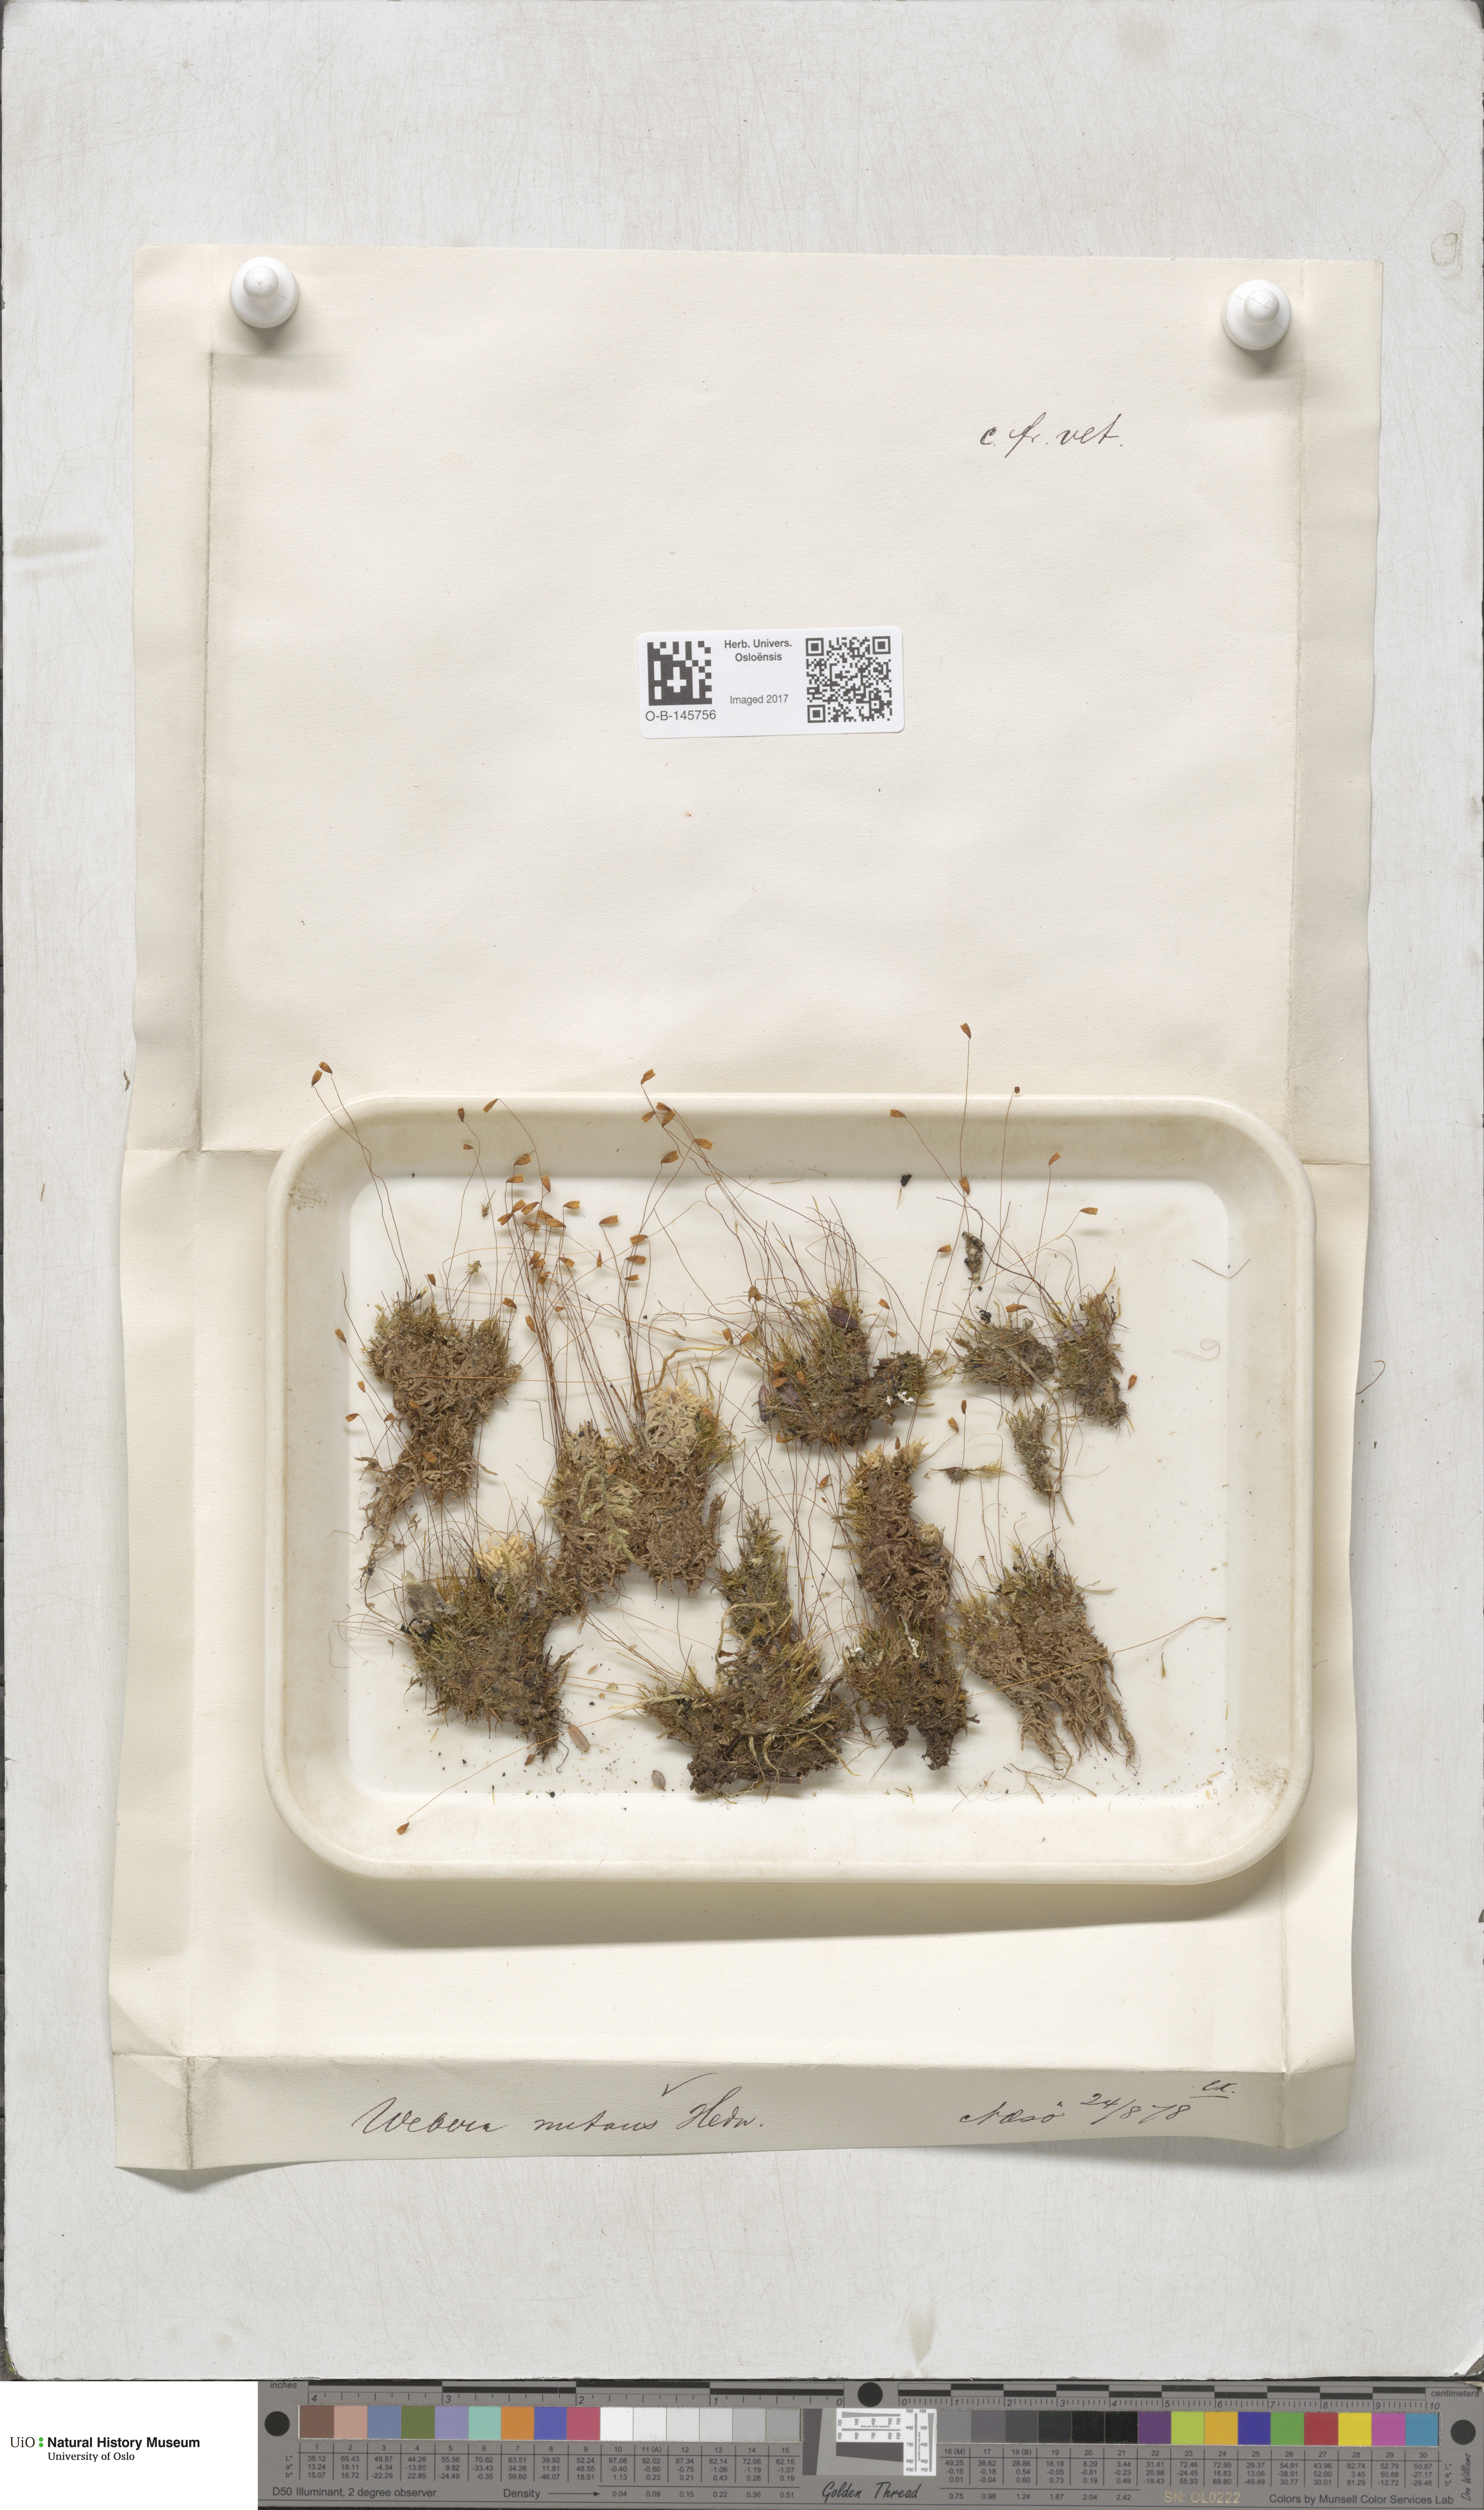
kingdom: Plantae
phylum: Bryophyta
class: Bryopsida
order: Bryales
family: Mniaceae
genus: Pohlia
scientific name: Pohlia nutans
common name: Nodding thread-moss
